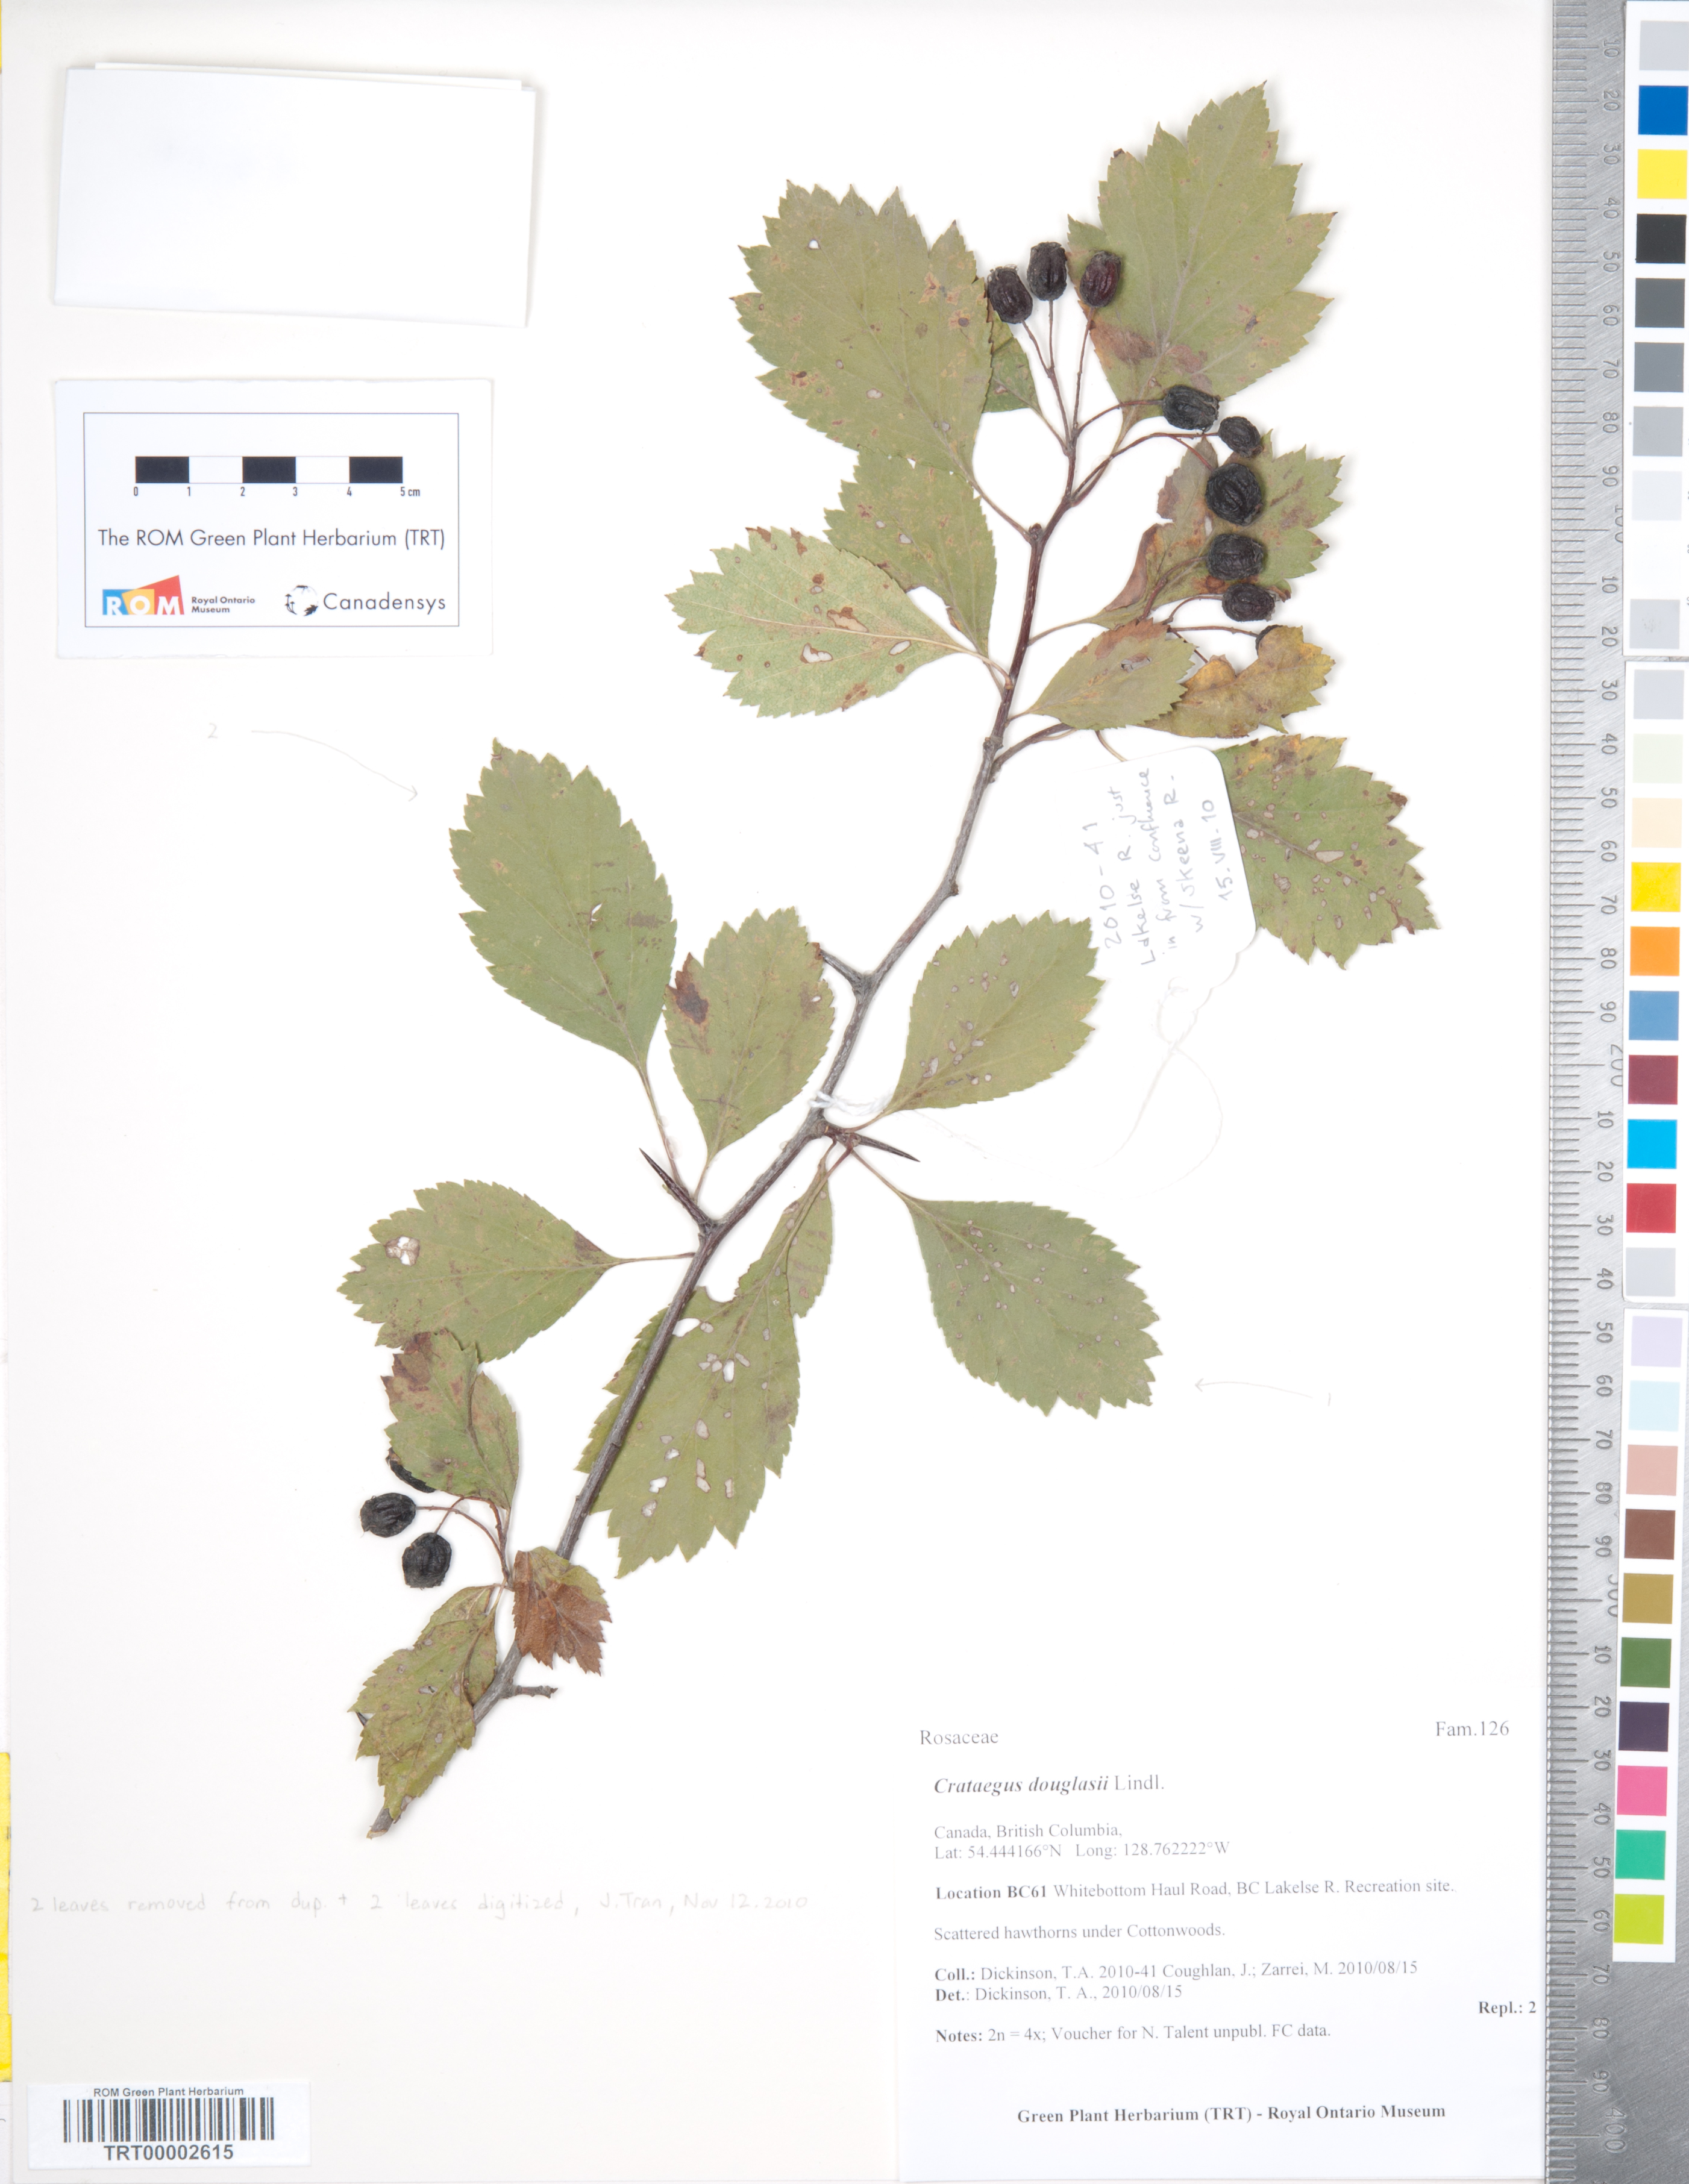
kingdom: Plantae
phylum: Tracheophyta
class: Magnoliopsida
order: Rosales
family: Rosaceae
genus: Crataegus
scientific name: Crataegus douglasii
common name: Black hawthorn
